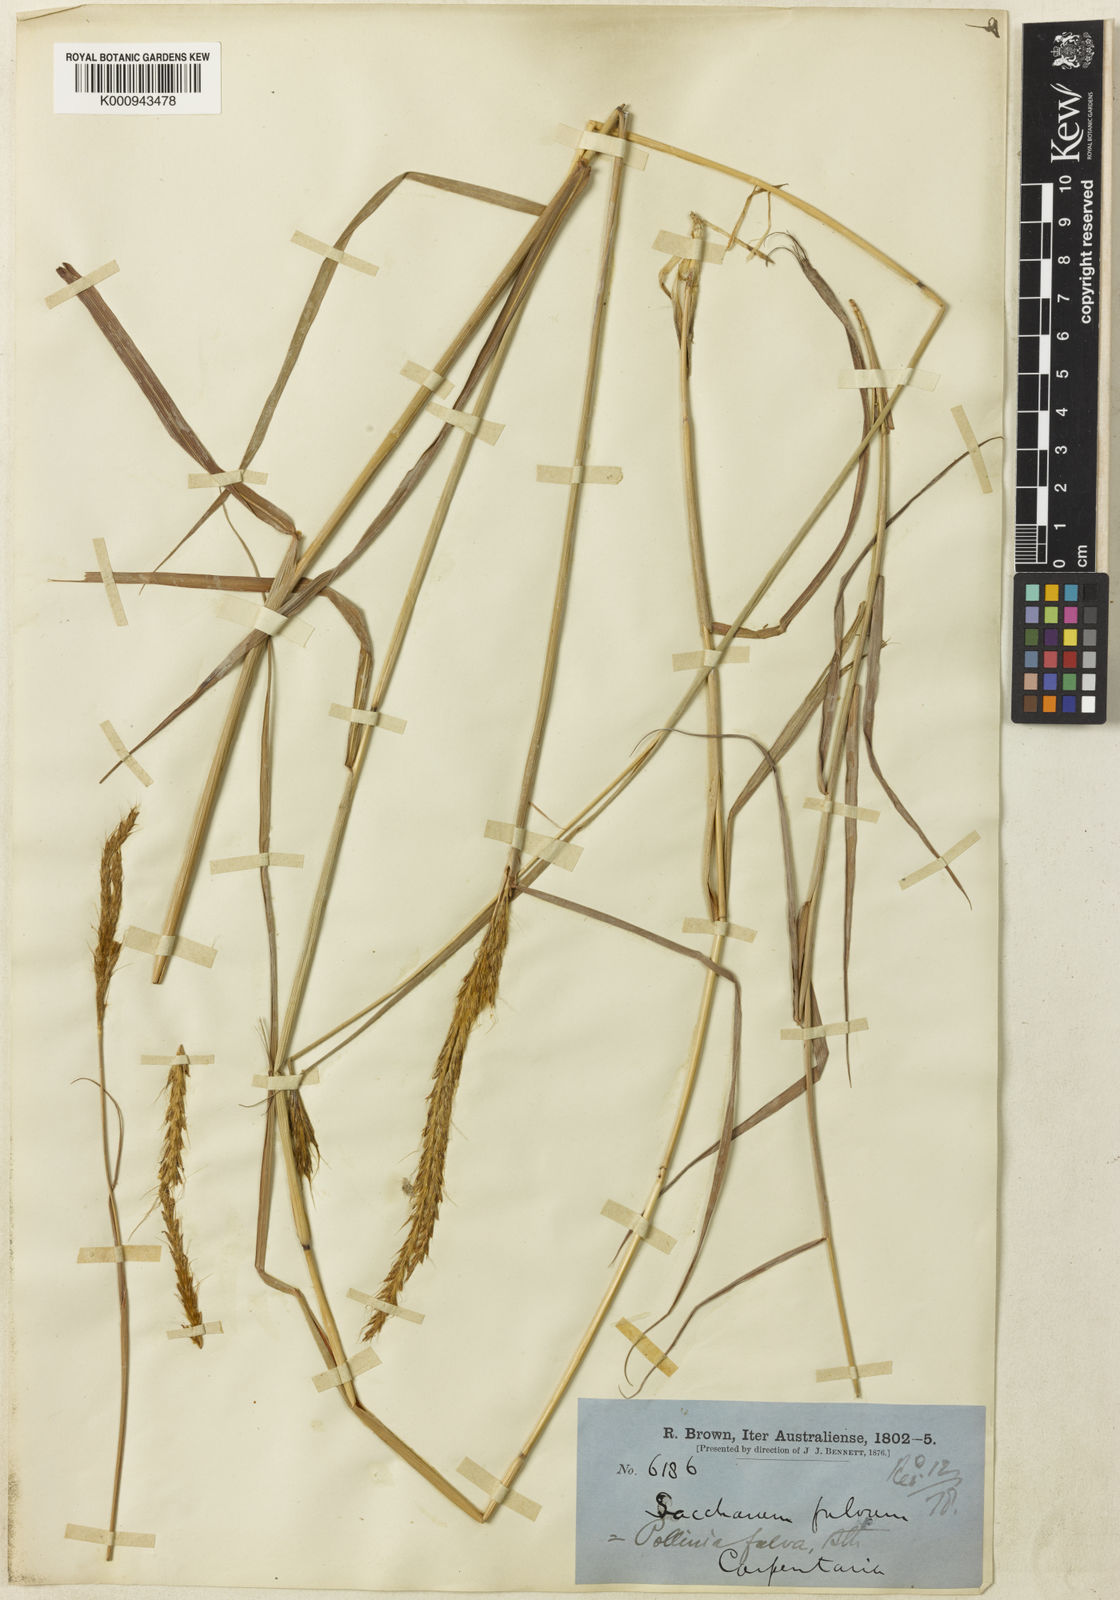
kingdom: Plantae
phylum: Tracheophyta
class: Liliopsida
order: Poales
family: Poaceae
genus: Eulalia
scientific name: Eulalia aurea
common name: Silky browntop
